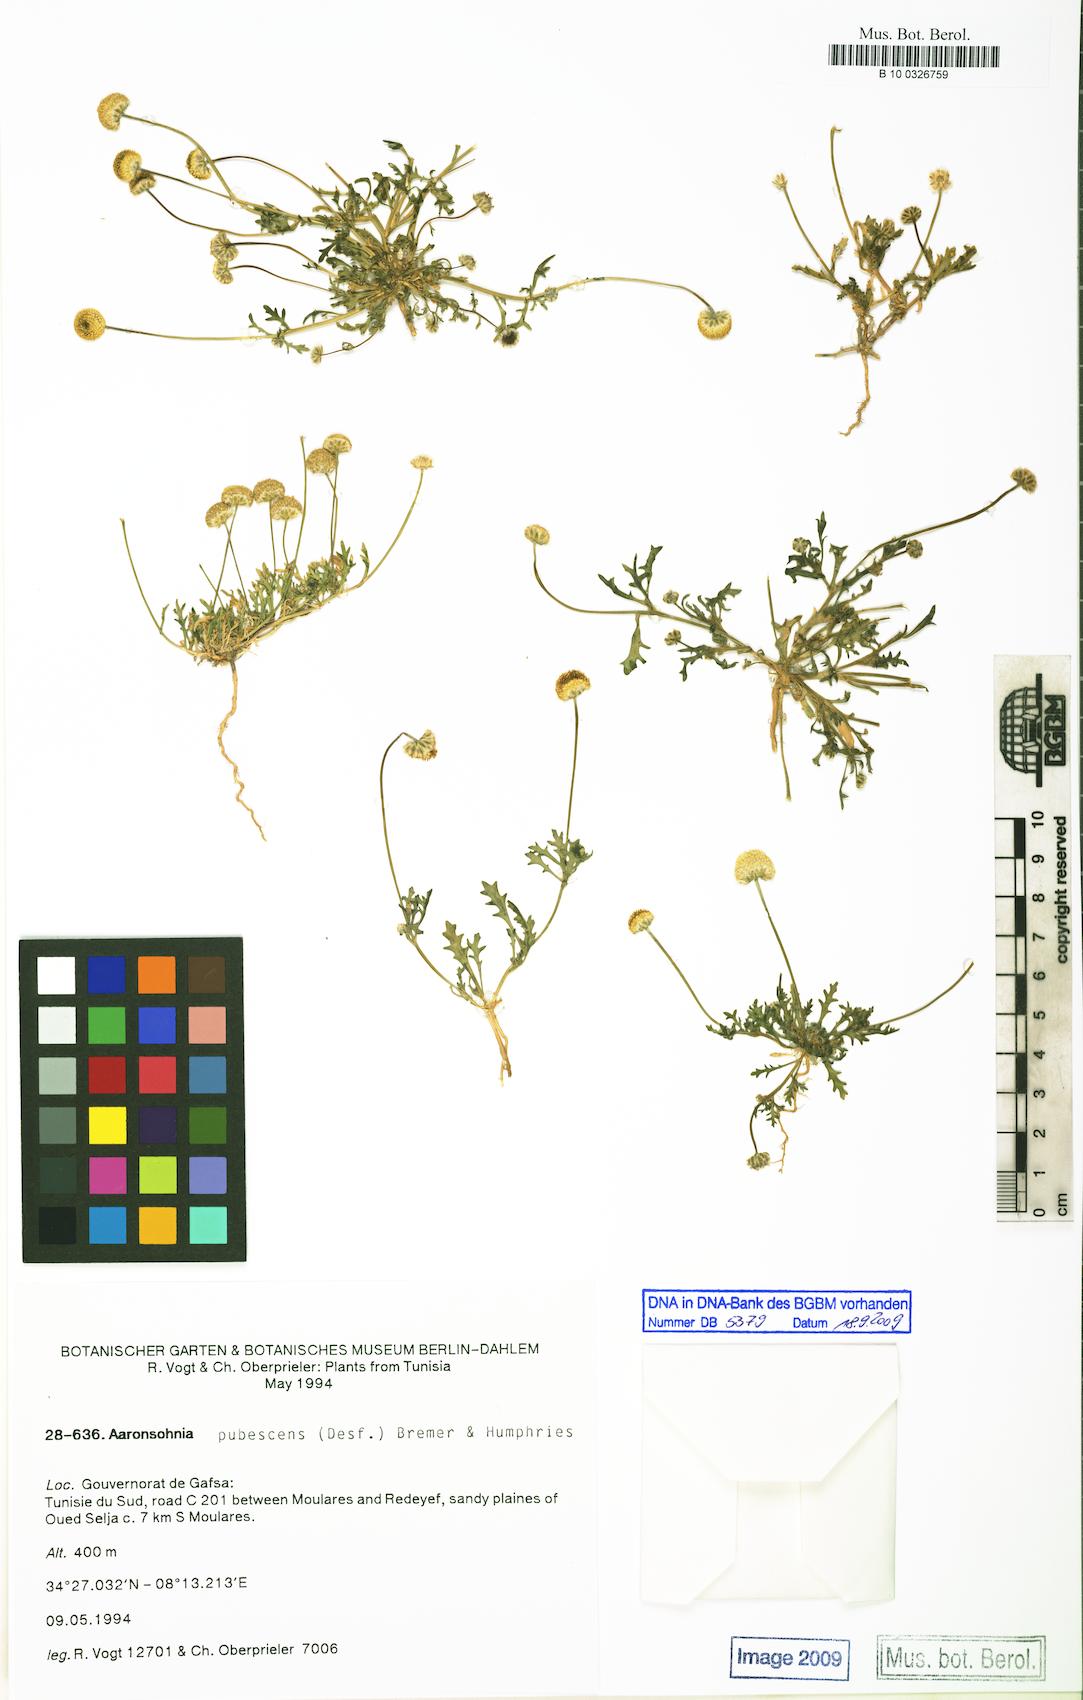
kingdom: Plantae
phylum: Tracheophyta
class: Magnoliopsida
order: Asterales
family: Asteraceae
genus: Otoglyphis
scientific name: Otoglyphis pubescens
